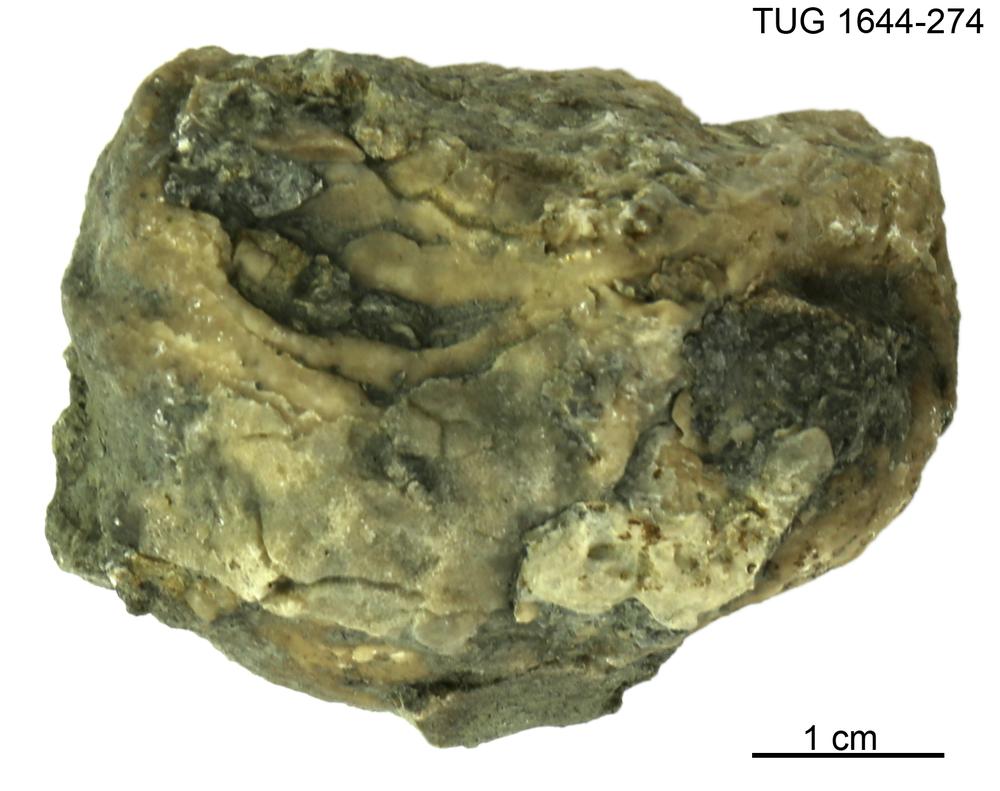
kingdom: Animalia
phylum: Porifera
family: Chaetetidae
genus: Solenopora
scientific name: Solenopora
